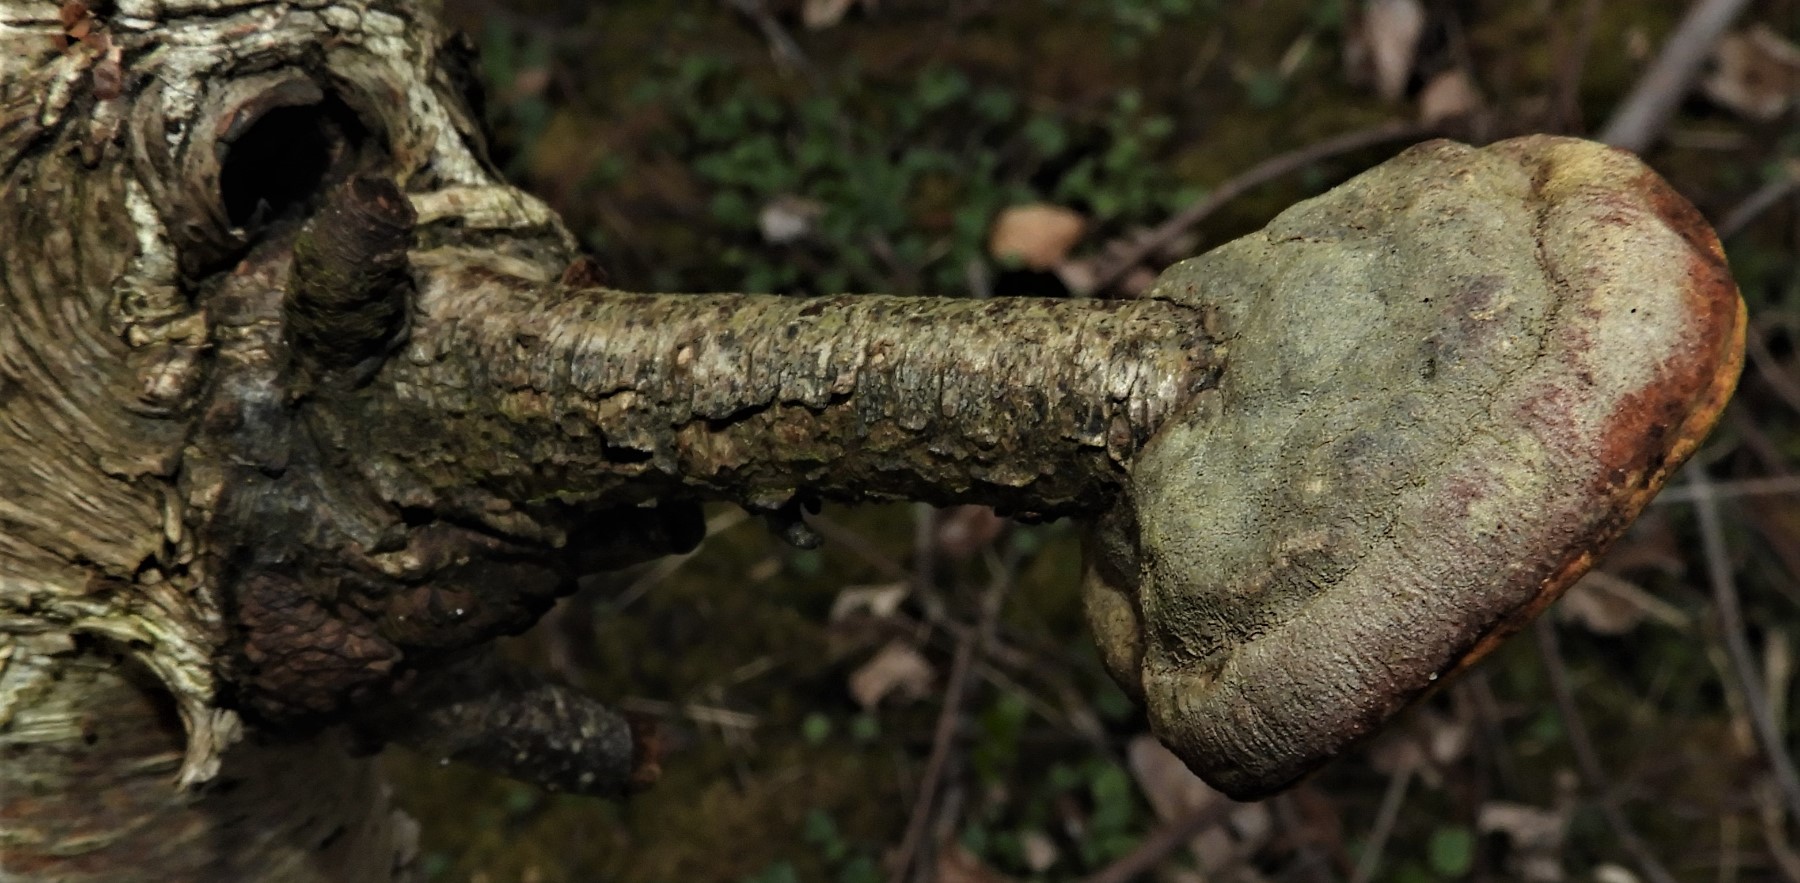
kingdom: Fungi
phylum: Basidiomycota
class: Agaricomycetes
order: Polyporales
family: Polyporaceae
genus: Fomes
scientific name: Fomes fomentarius
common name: tøndersvamp
